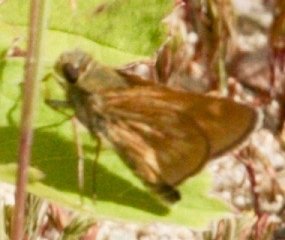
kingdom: Animalia
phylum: Arthropoda
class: Insecta
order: Lepidoptera
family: Hesperiidae
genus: Polites
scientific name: Polites
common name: Long Dash Skipper
